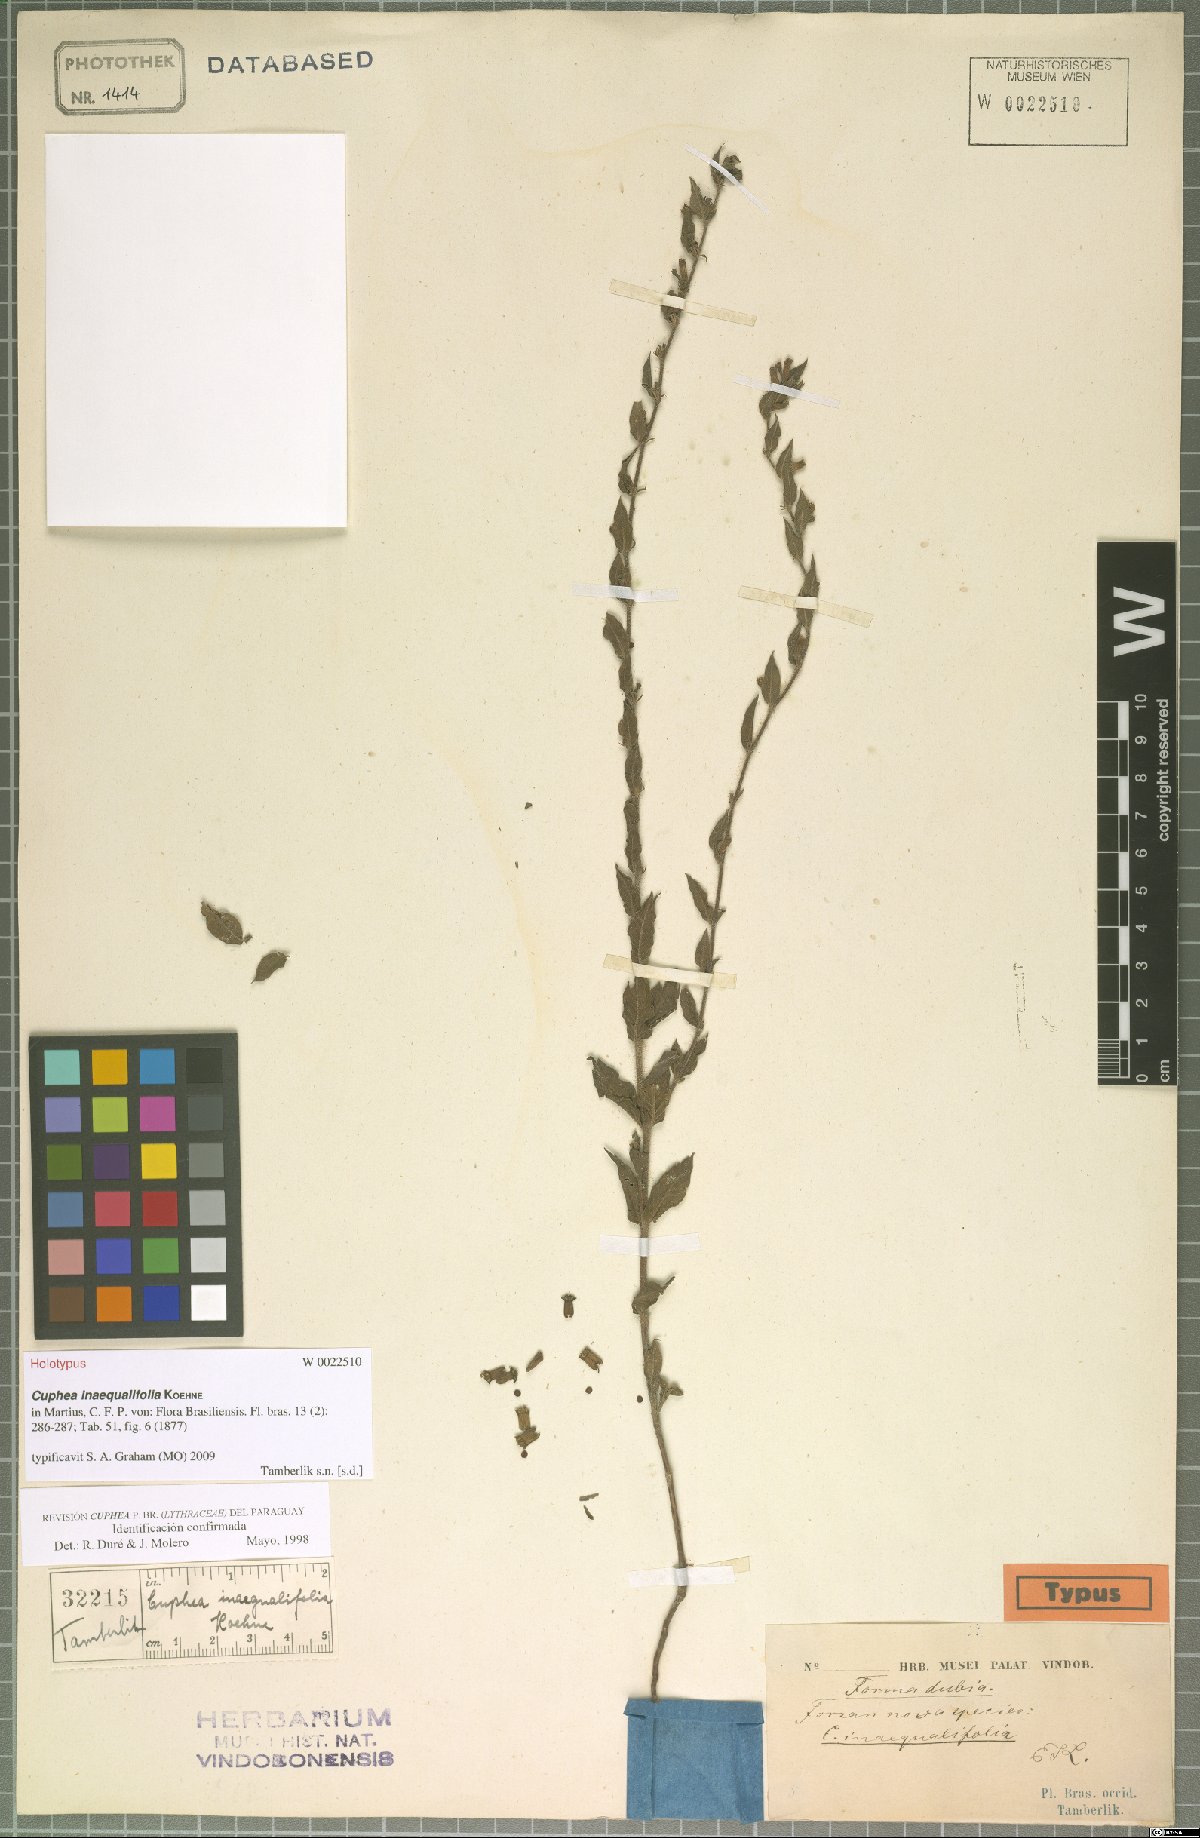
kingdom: Plantae
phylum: Tracheophyta
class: Magnoliopsida
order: Myrtales
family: Lythraceae
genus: Cuphea
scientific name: Cuphea inaequalifolia
